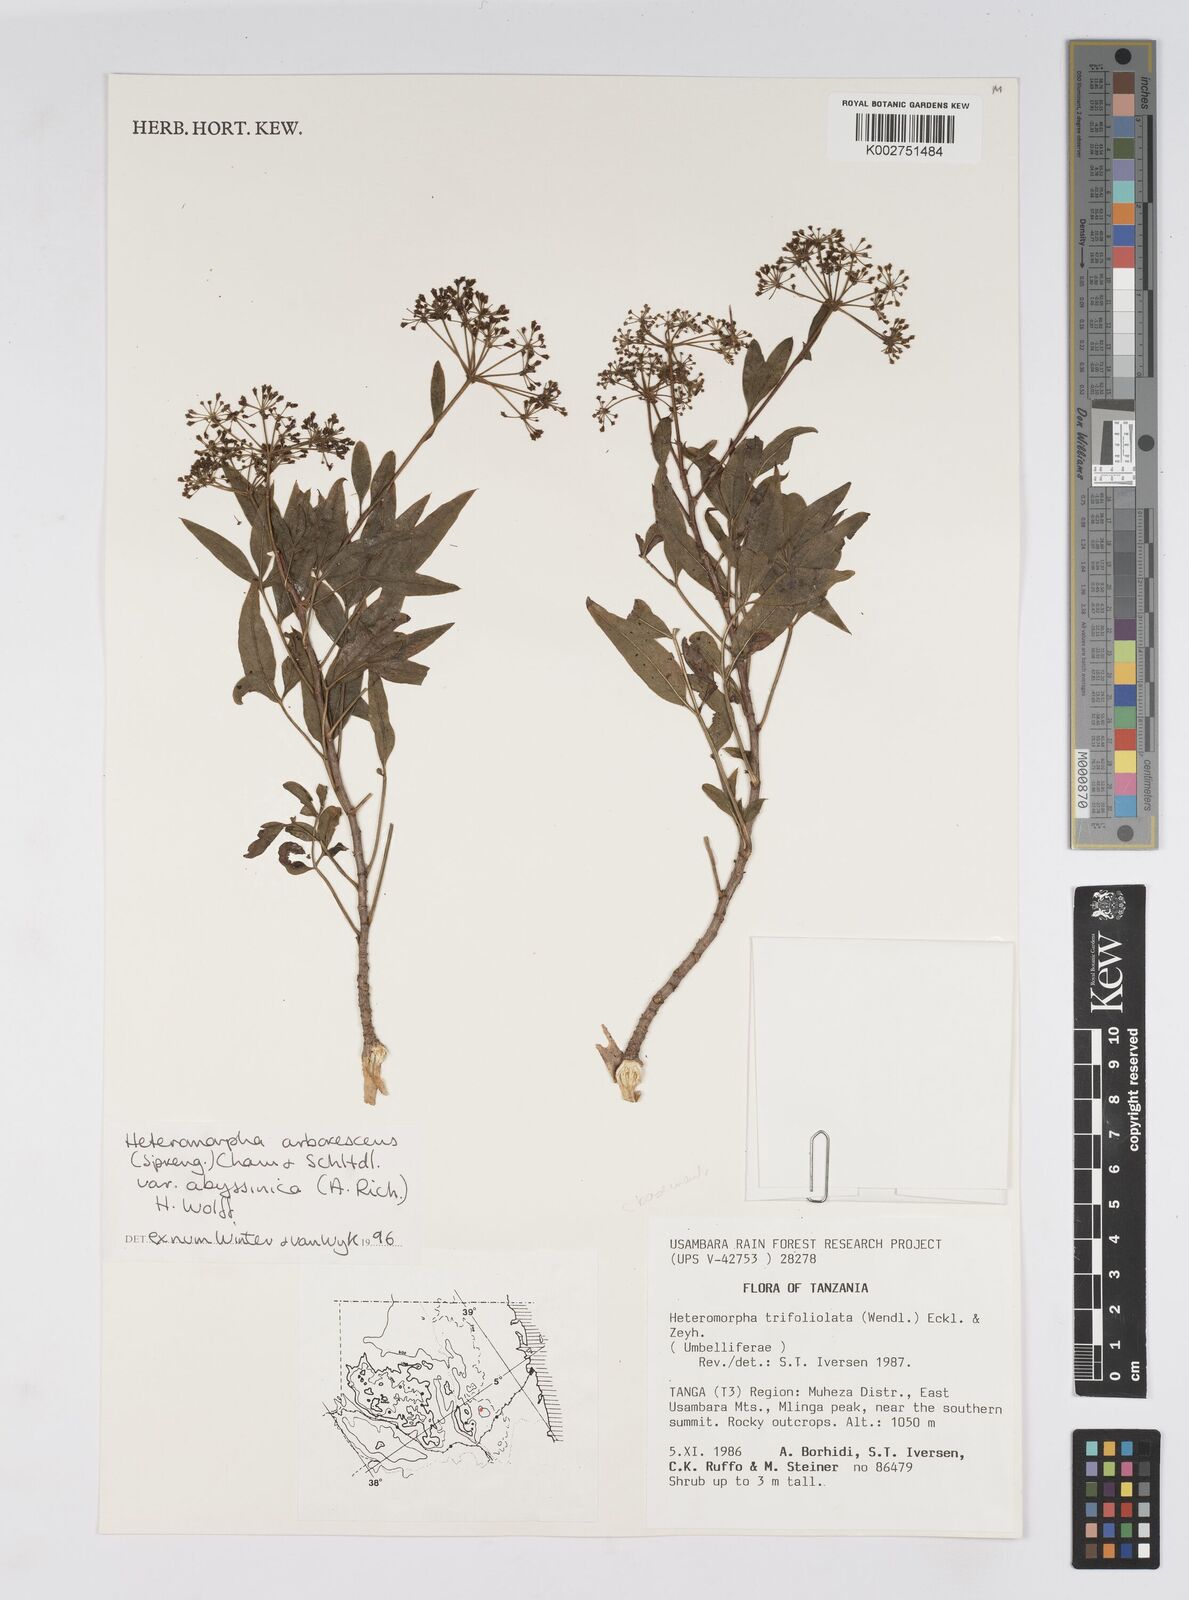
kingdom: Plantae
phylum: Tracheophyta
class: Magnoliopsida
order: Apiales
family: Apiaceae
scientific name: Apiaceae
